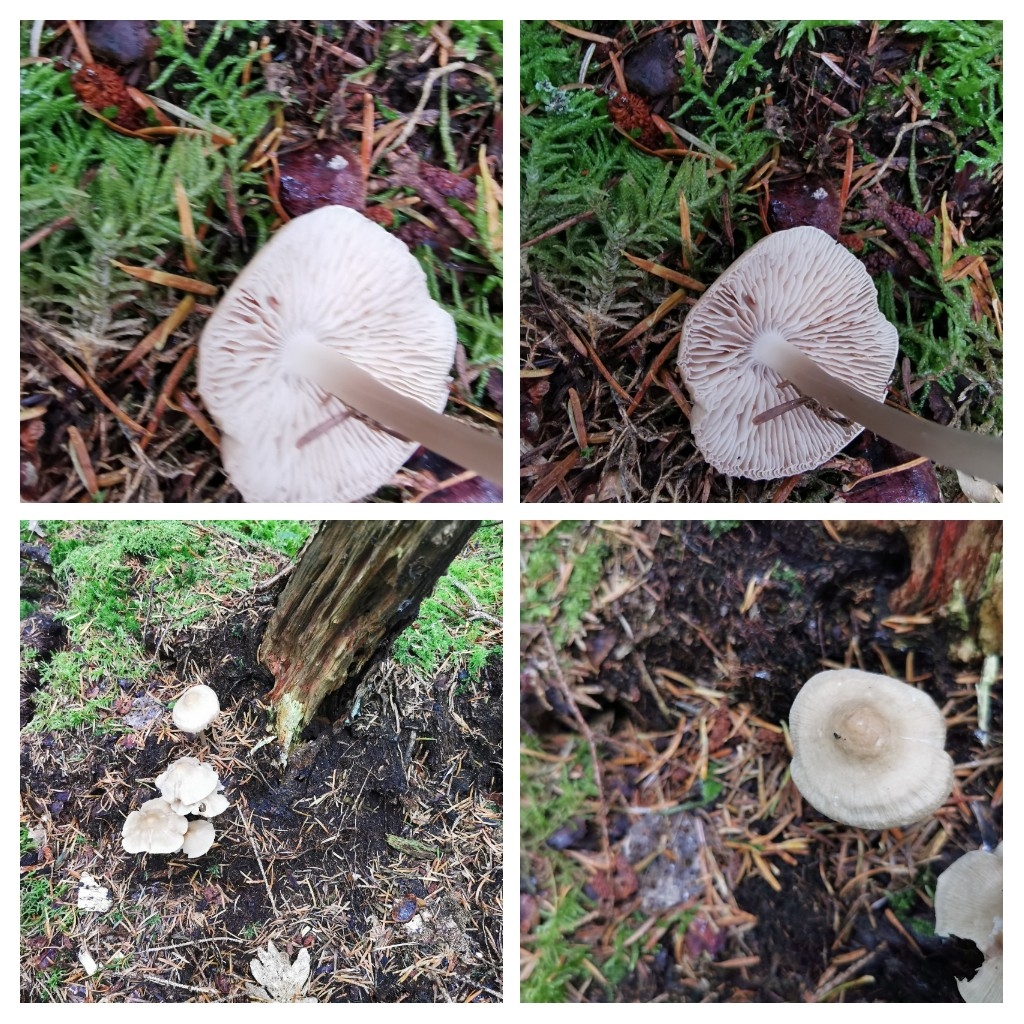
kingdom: Fungi
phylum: Basidiomycota
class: Agaricomycetes
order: Agaricales
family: Mycenaceae
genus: Mycena
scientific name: Mycena galericulata
